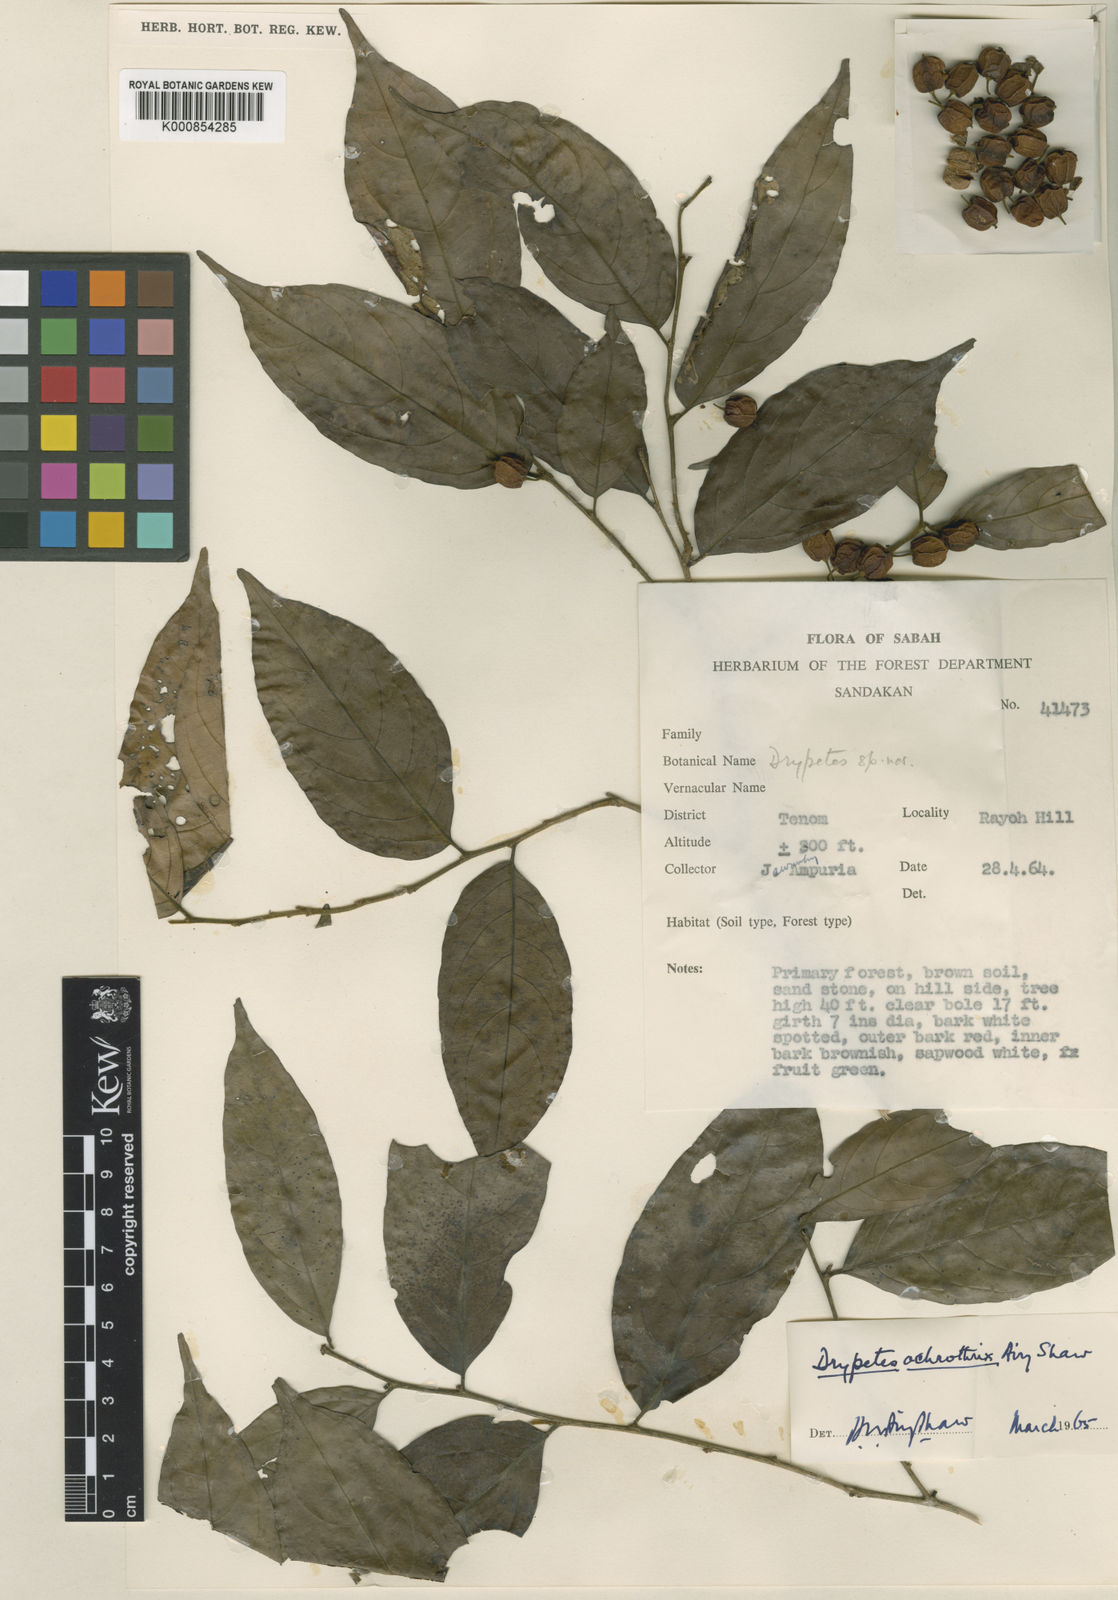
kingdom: Plantae
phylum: Tracheophyta
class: Magnoliopsida
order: Malpighiales
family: Putranjivaceae
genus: Drypetes
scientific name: Drypetes ochrothrix
